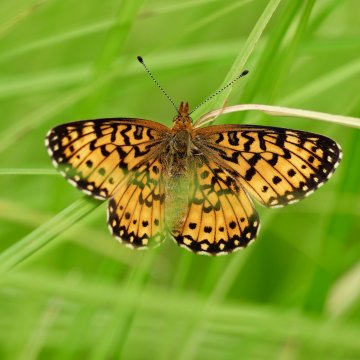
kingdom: Animalia
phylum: Arthropoda
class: Insecta
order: Lepidoptera
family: Nymphalidae
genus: Boloria
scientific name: Boloria selene
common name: Silver-bordered Fritillary
